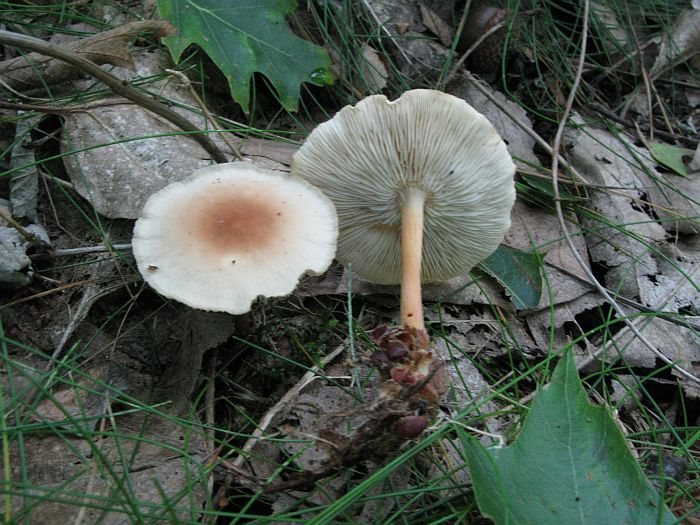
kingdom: Fungi
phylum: Basidiomycota
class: Agaricomycetes
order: Agaricales
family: Omphalotaceae
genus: Gymnopus
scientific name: Gymnopus dryophilus
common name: løv-fladhat
